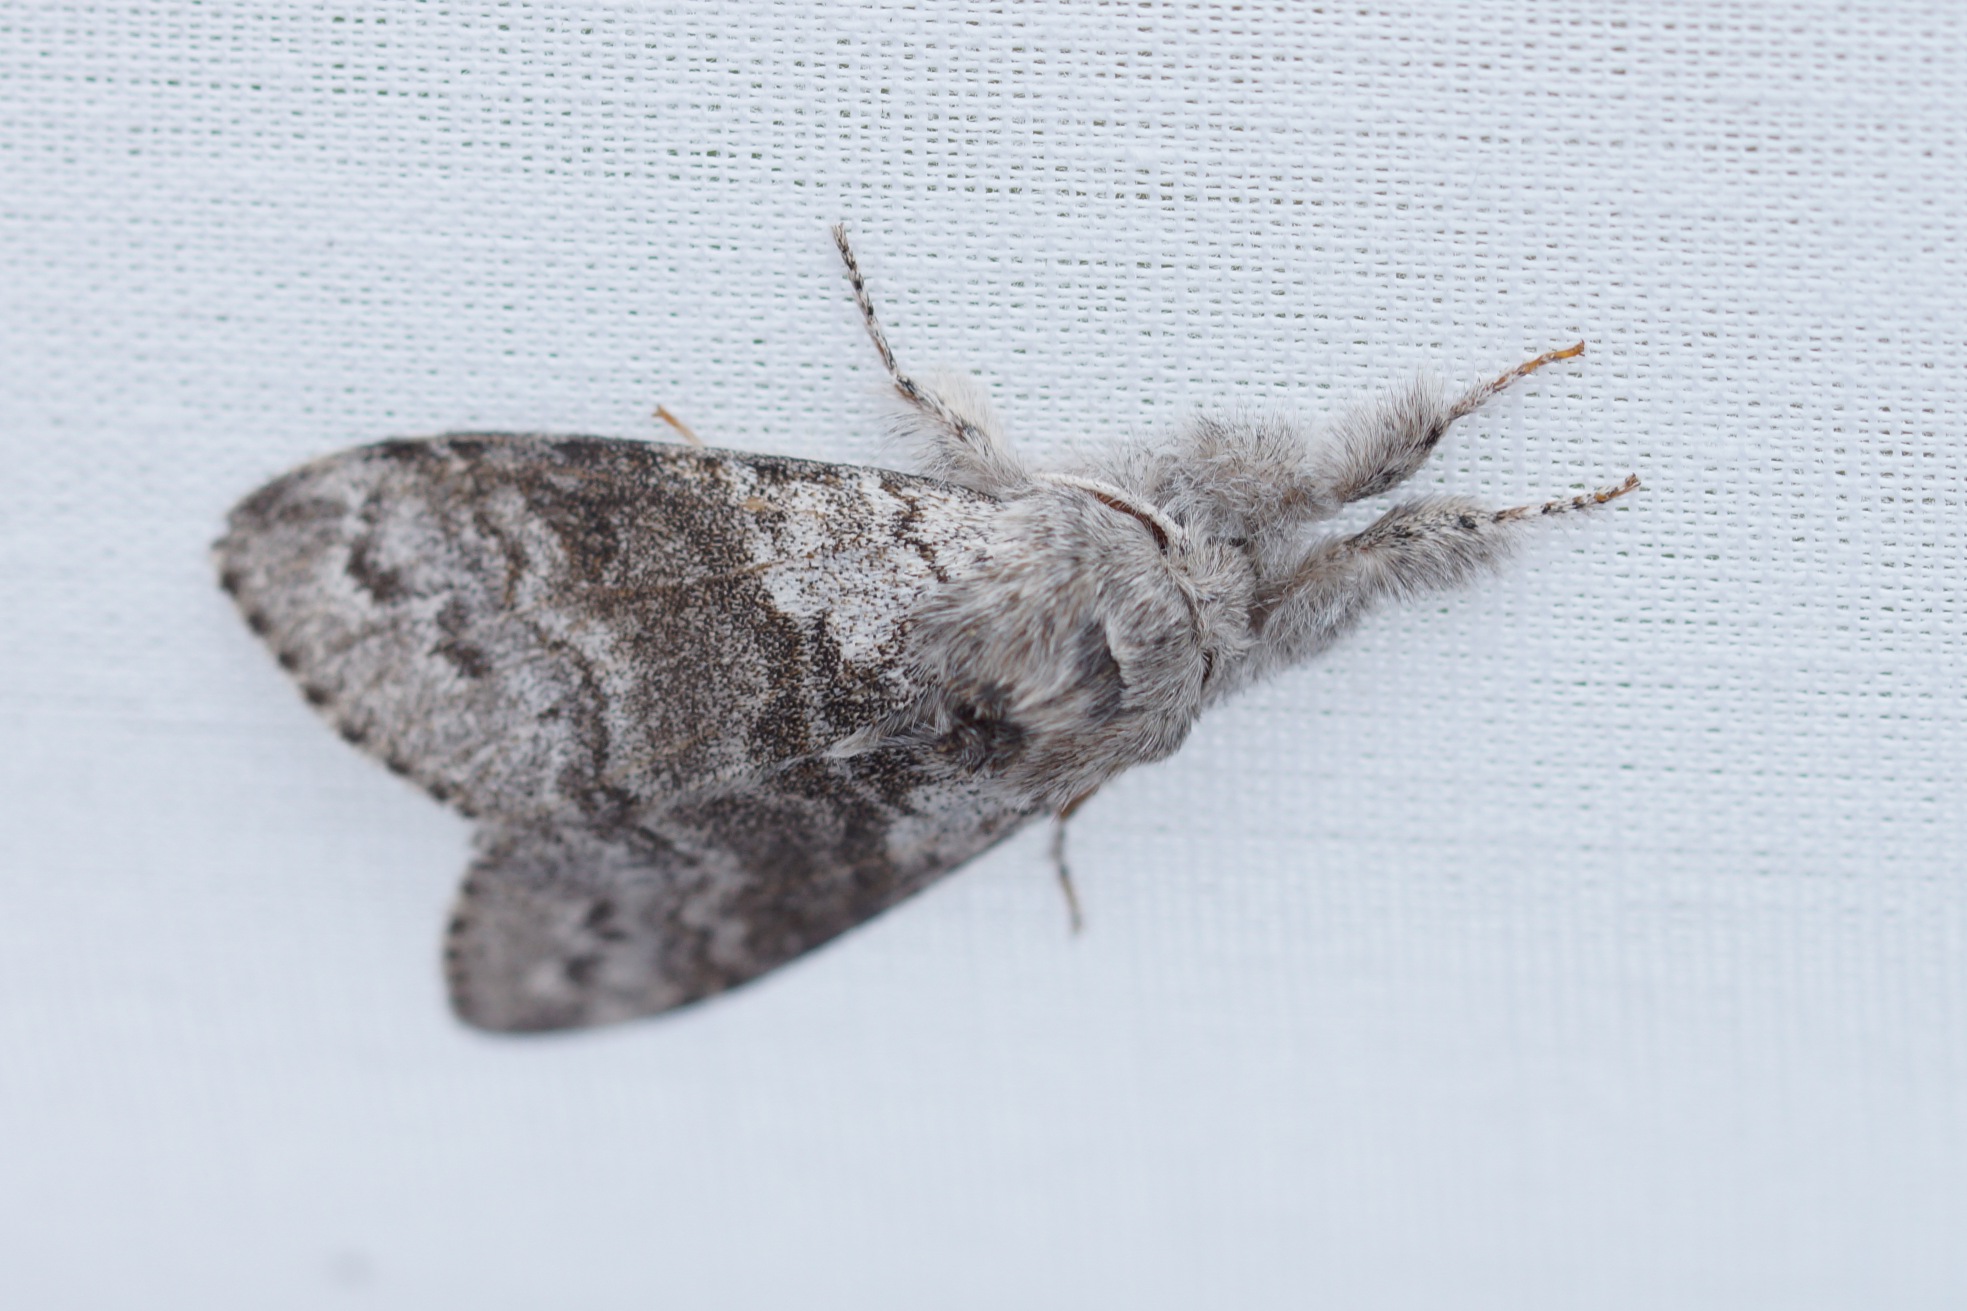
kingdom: Animalia
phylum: Arthropoda
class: Insecta
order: Lepidoptera
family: Erebidae
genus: Calliteara
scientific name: Calliteara pudibunda
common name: Bøgenonne
